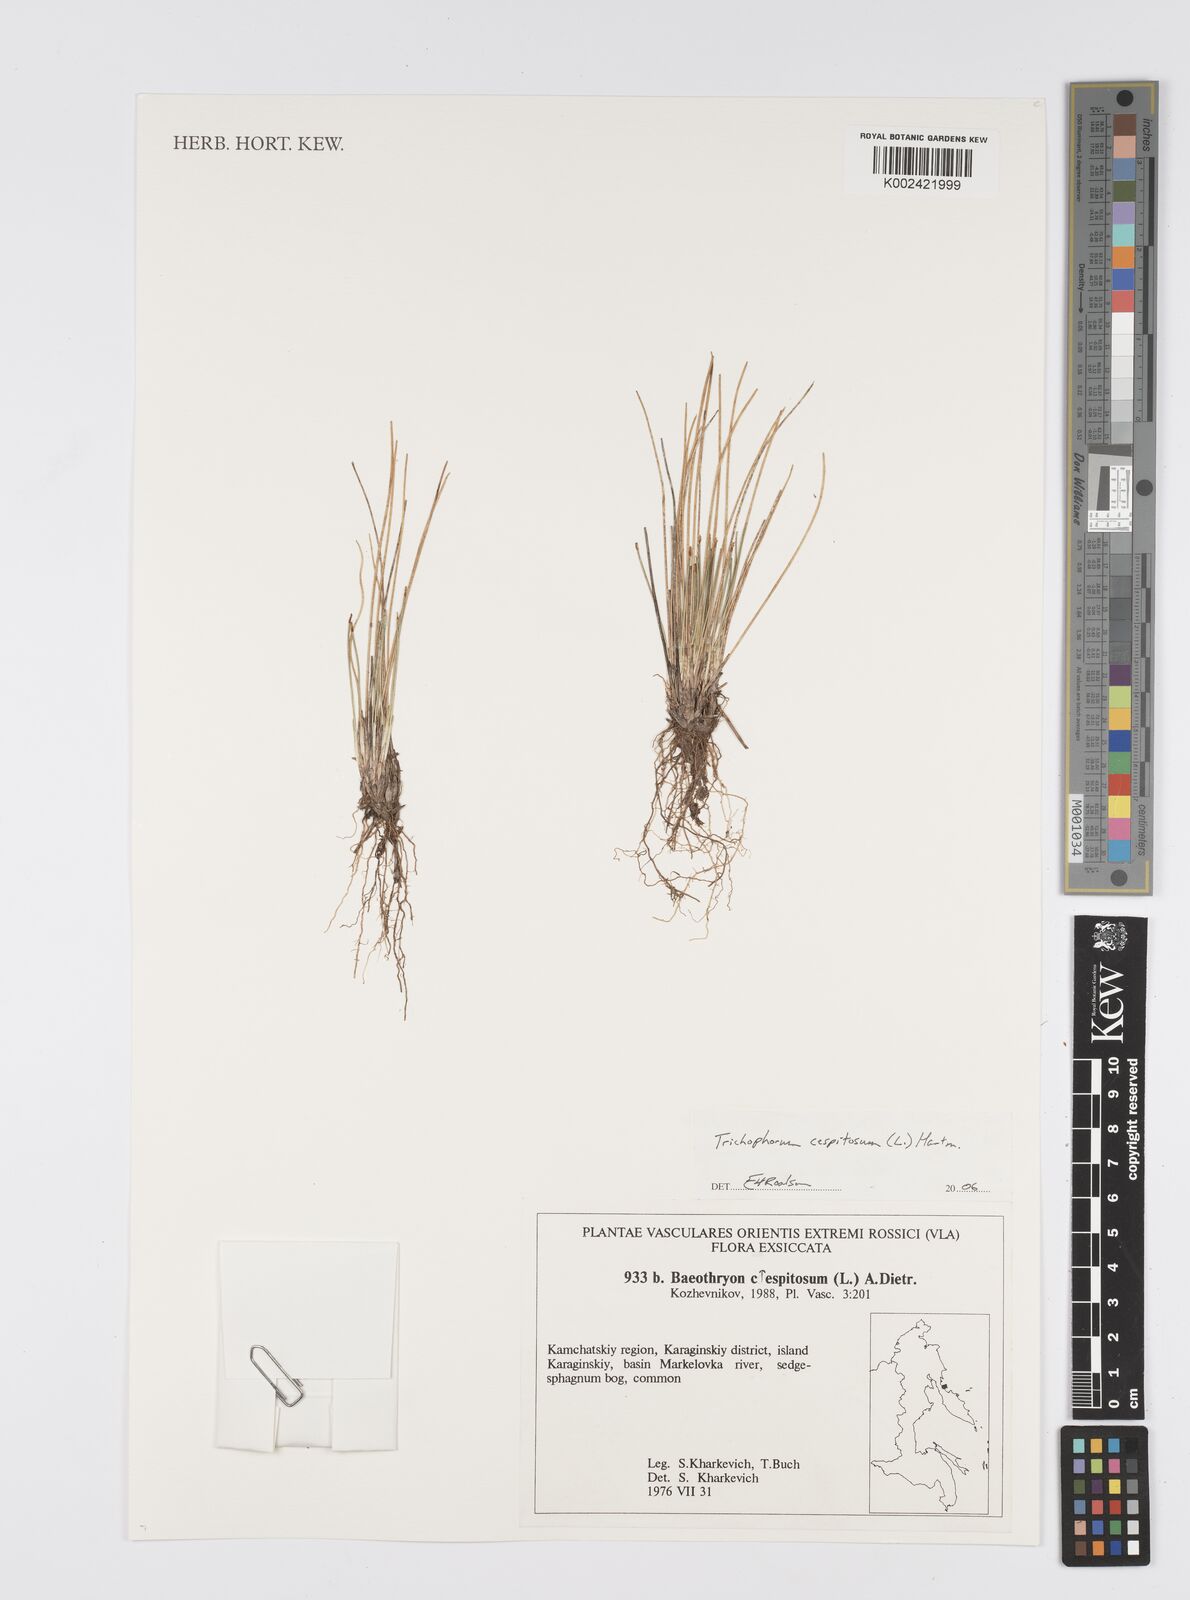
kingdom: Plantae
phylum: Tracheophyta
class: Liliopsida
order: Poales
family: Cyperaceae
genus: Eleocharis
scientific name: Eleocharis
